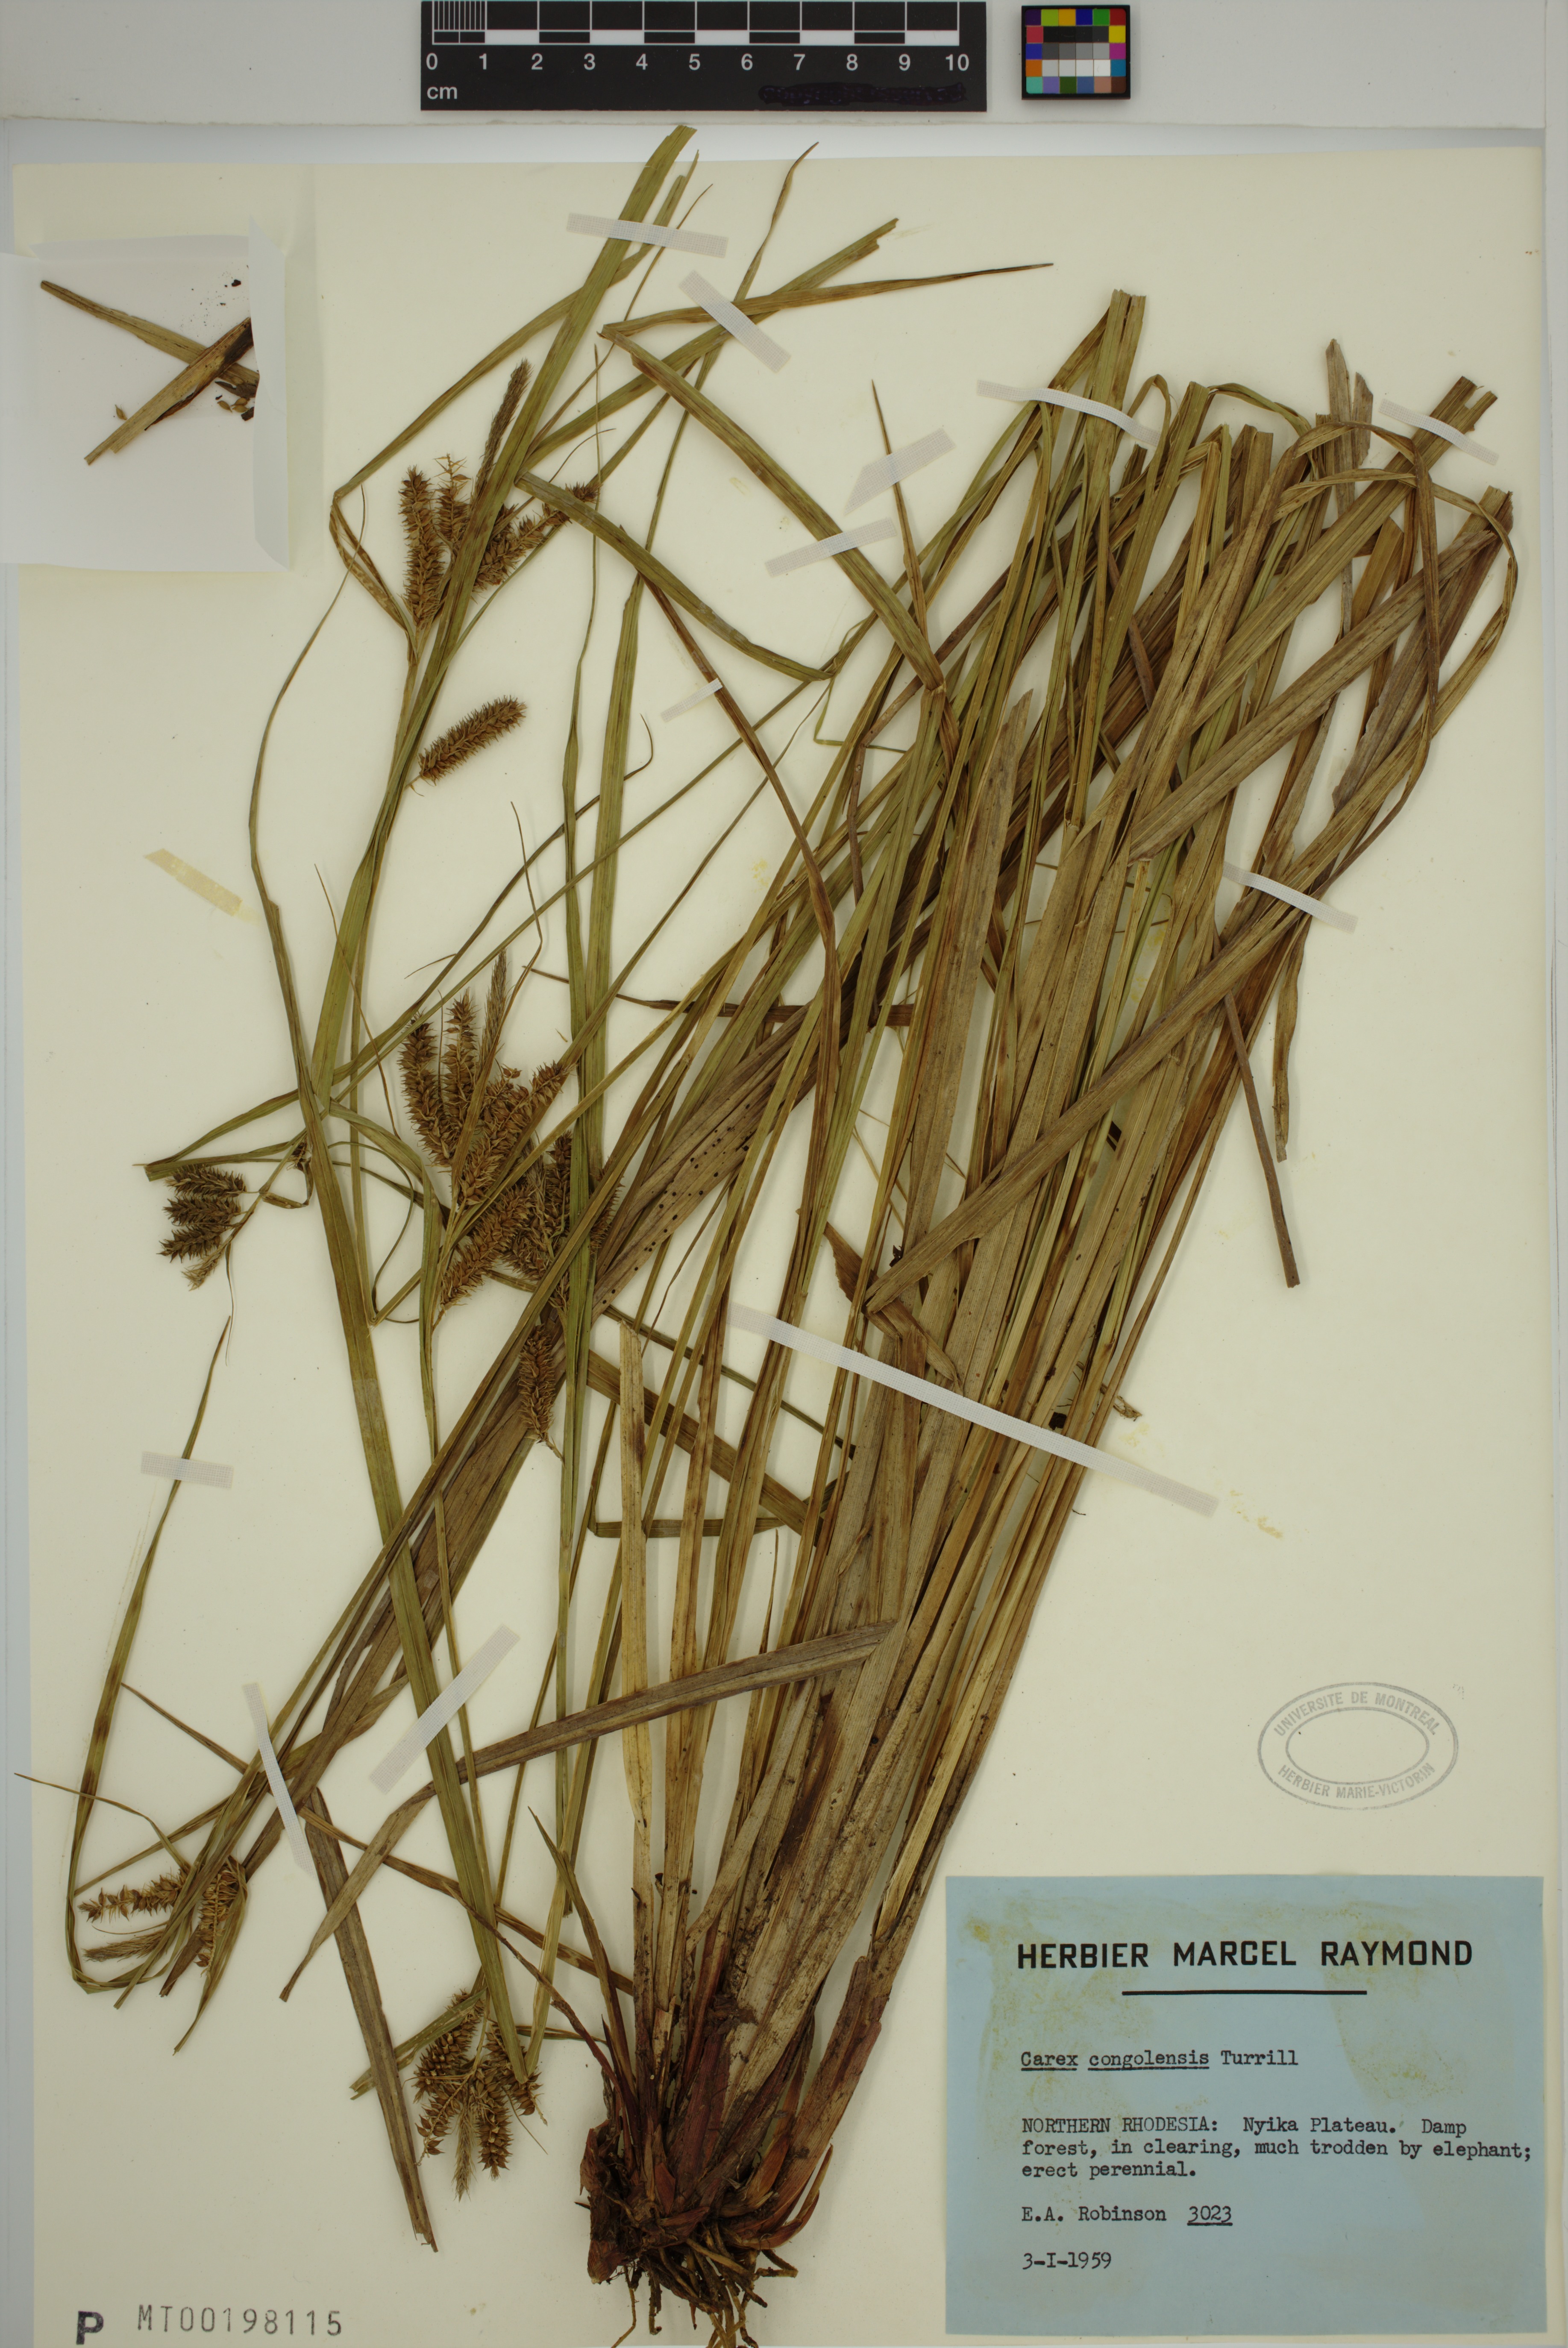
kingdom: Plantae
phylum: Tracheophyta
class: Liliopsida
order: Poales
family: Cyperaceae
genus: Carex
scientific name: Carex cognata
